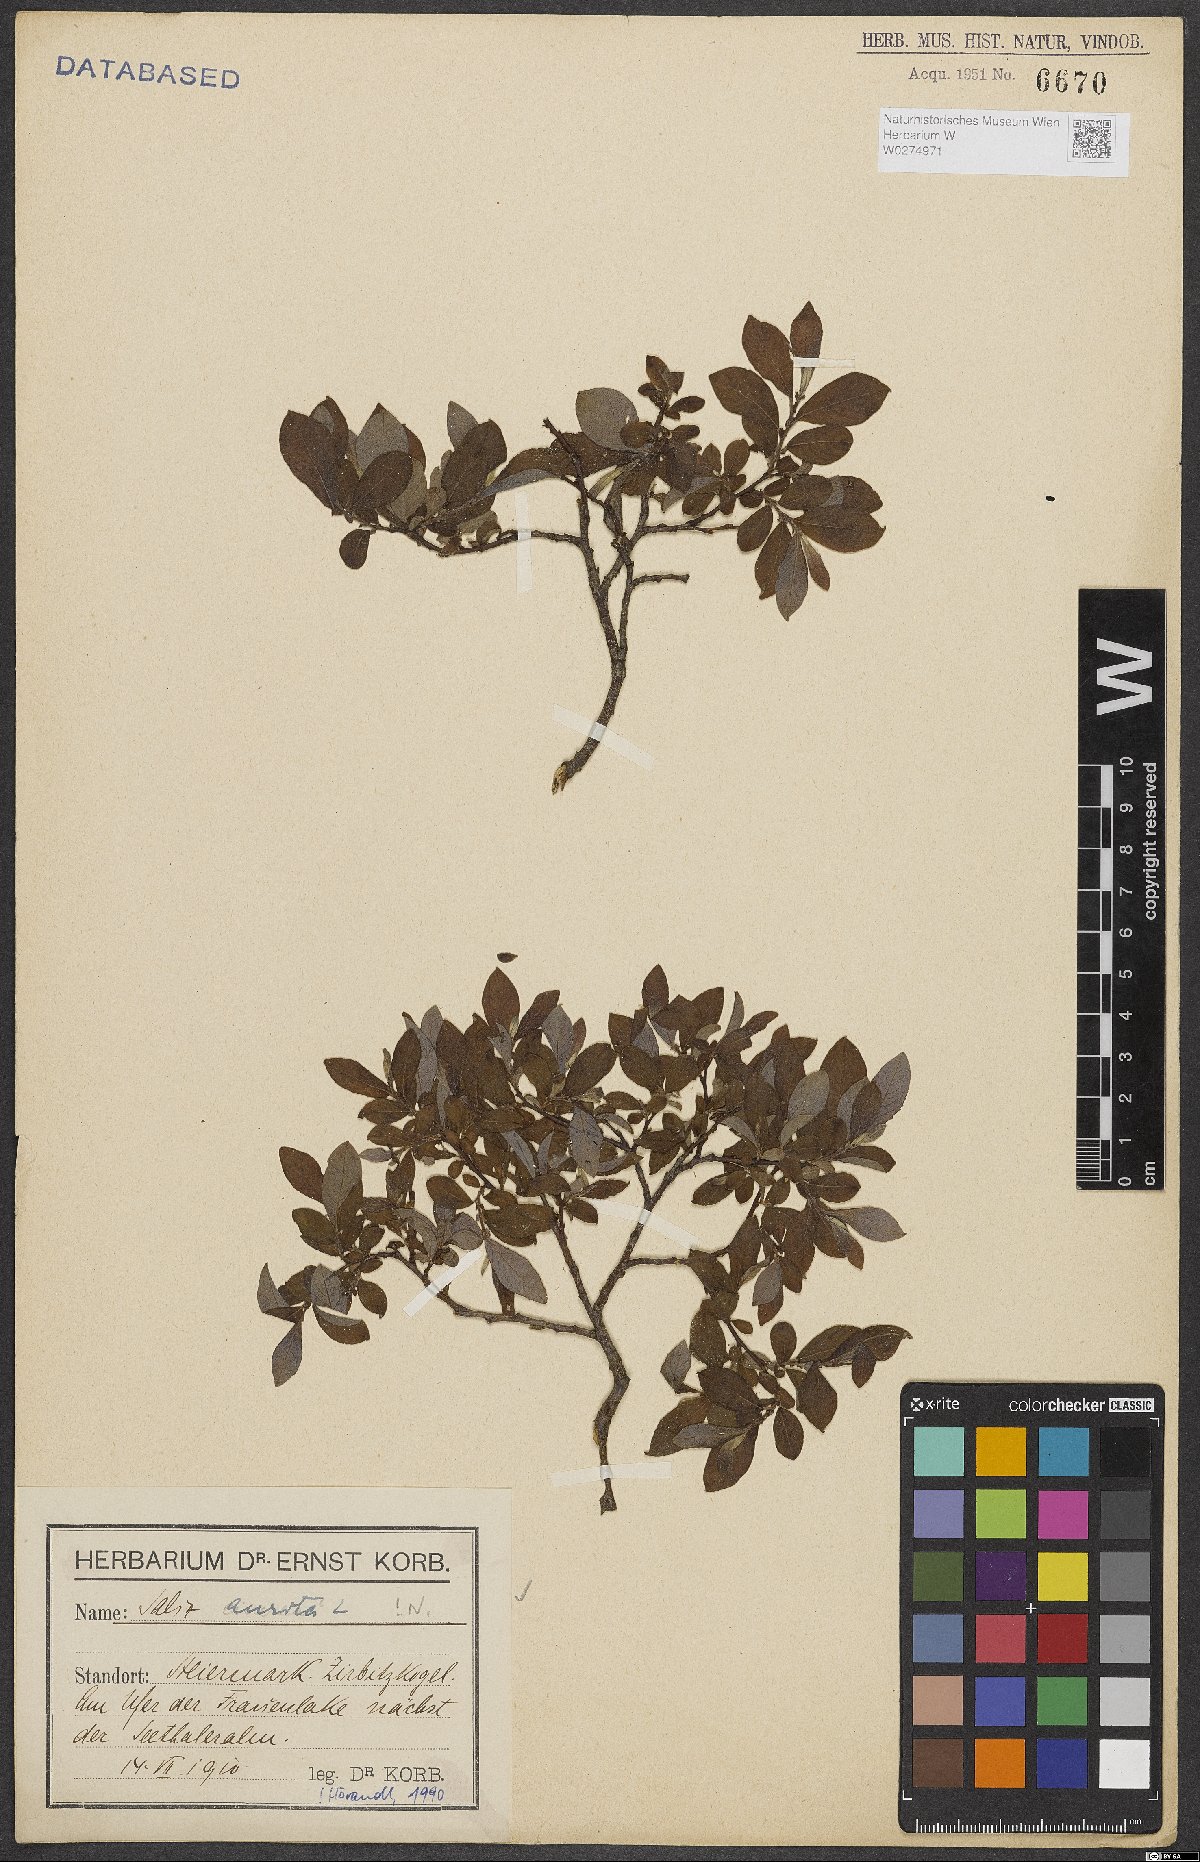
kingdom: Plantae
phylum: Tracheophyta
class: Magnoliopsida
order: Malpighiales
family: Salicaceae
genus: Salix
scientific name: Salix aurita
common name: Eared willow
